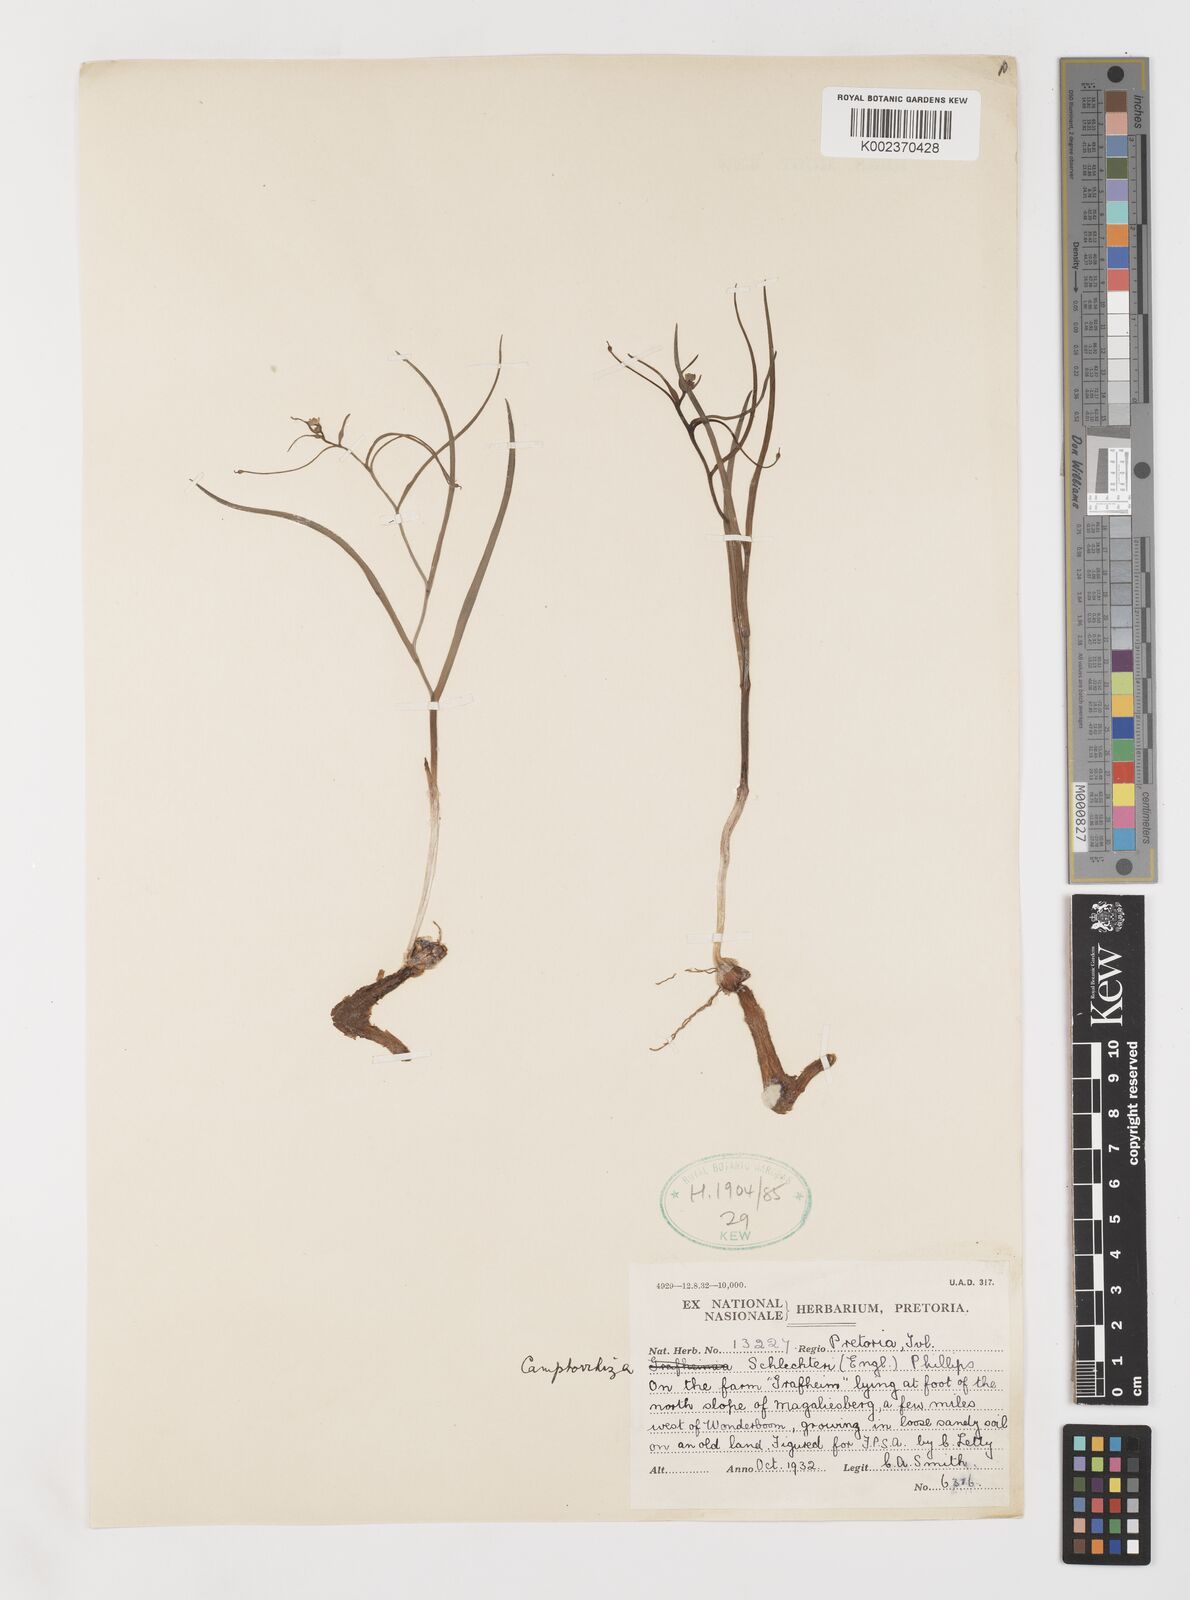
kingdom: Plantae
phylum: Tracheophyta
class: Liliopsida
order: Liliales
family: Colchicaceae
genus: Camptorrhiza
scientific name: Camptorrhiza strumosa
